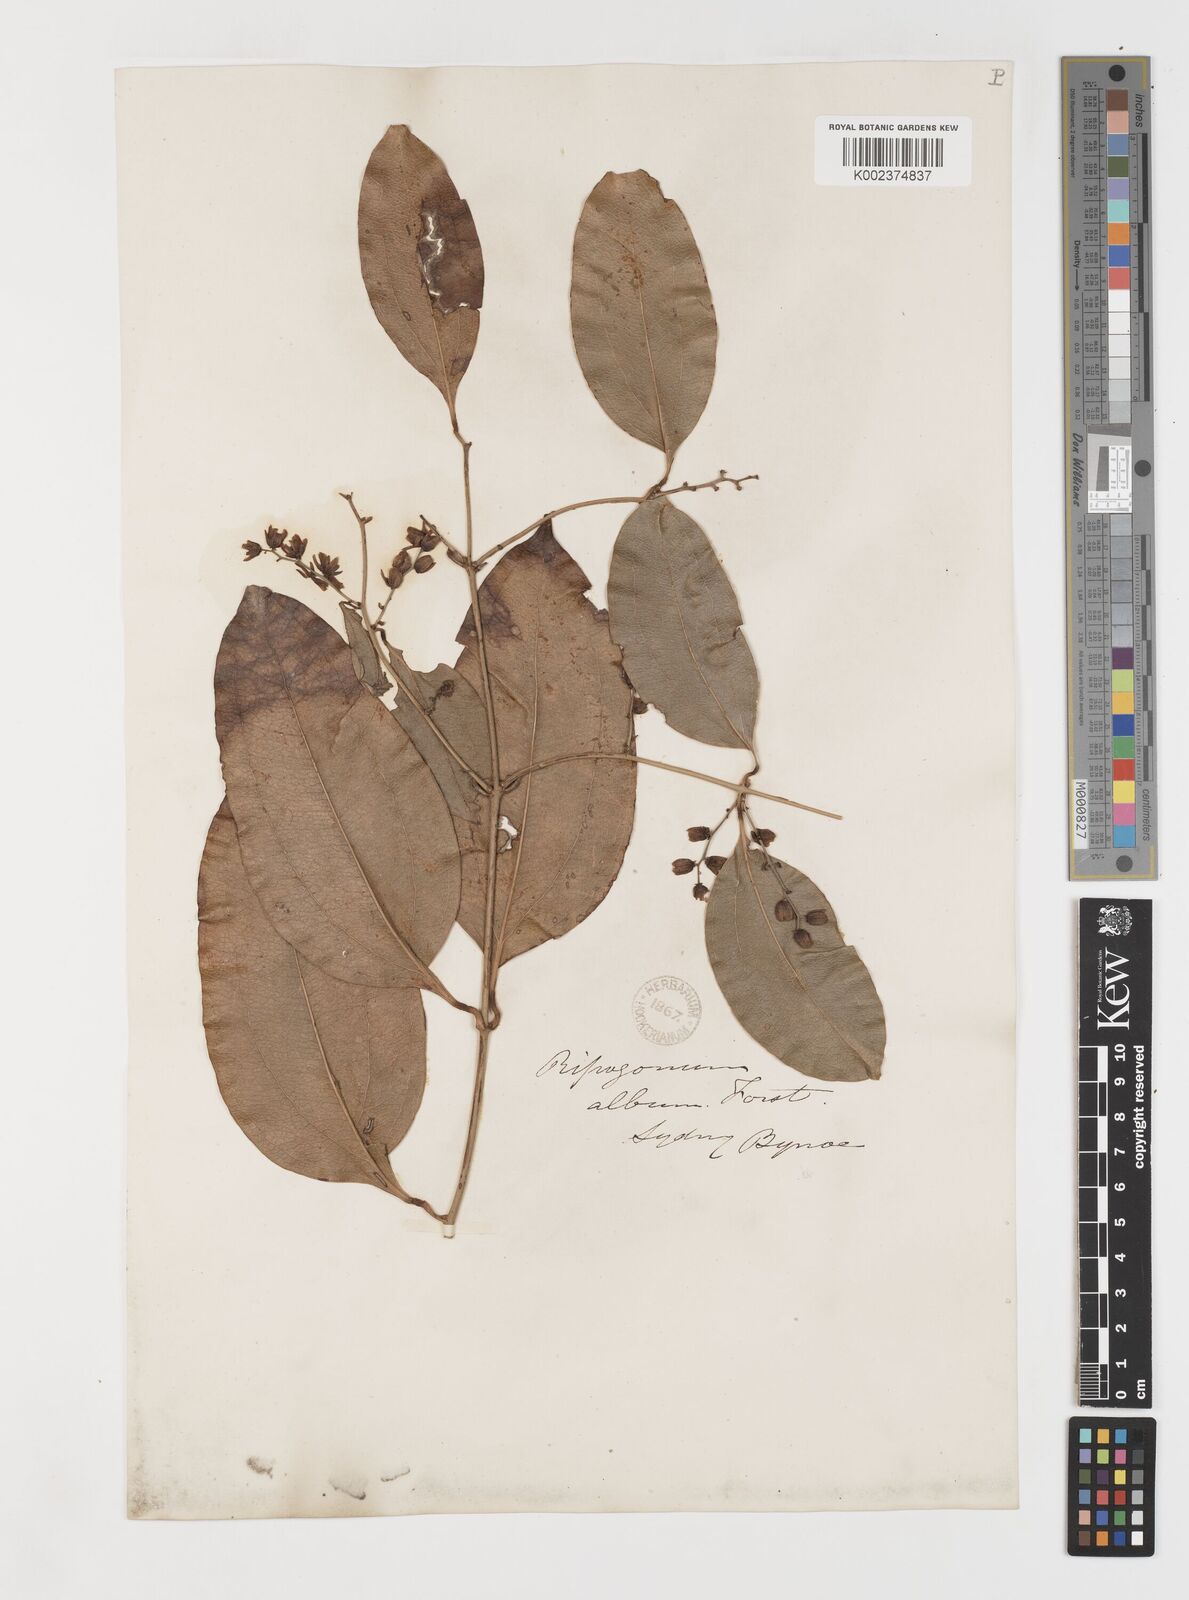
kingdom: Plantae
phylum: Tracheophyta
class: Liliopsida
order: Liliales
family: Ripogonaceae
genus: Ripogonum
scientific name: Ripogonum album
